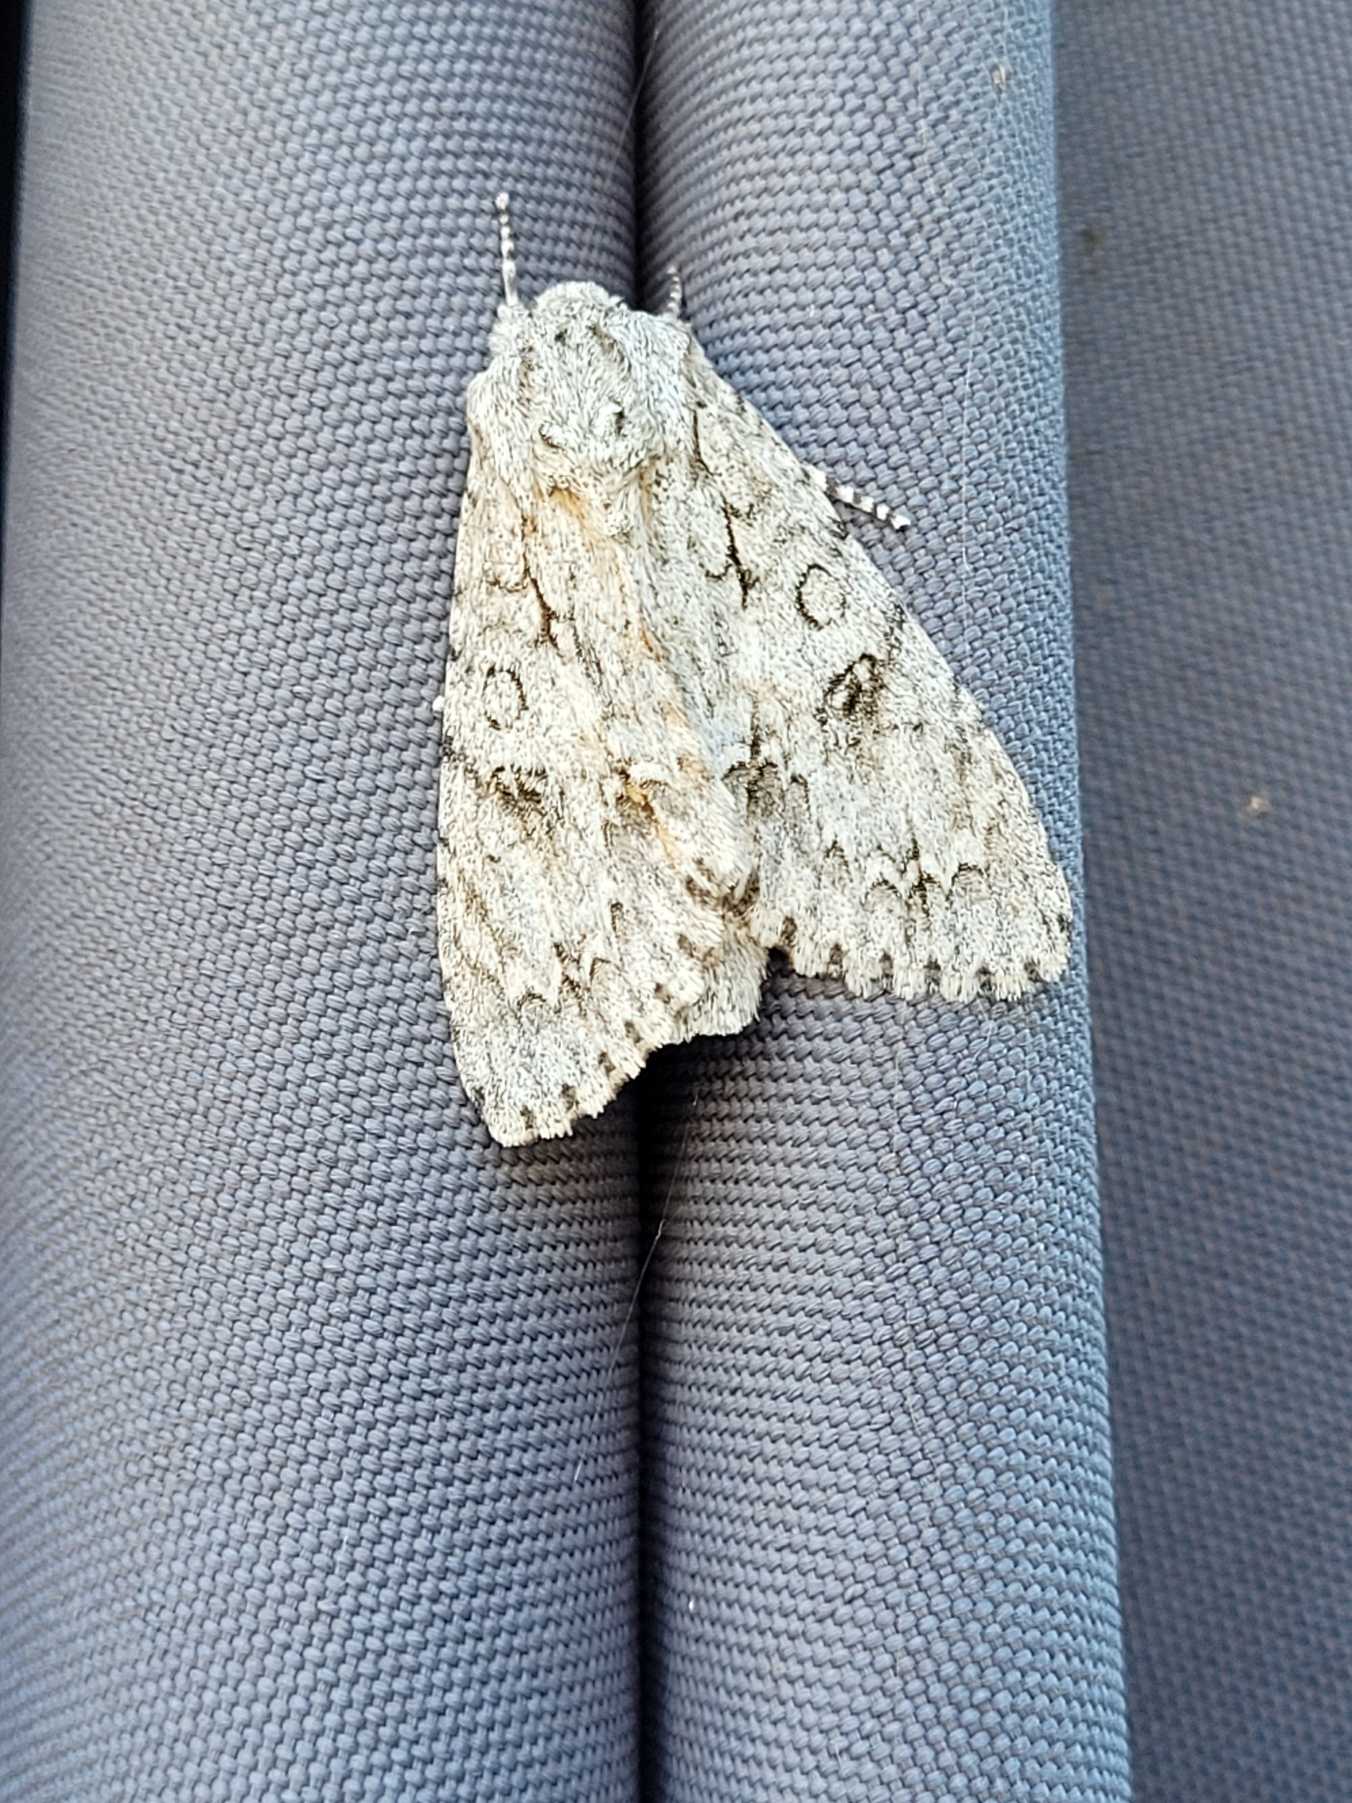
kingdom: Animalia
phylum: Arthropoda
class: Insecta
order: Lepidoptera
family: Noctuidae
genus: Acronicta
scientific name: Acronicta aceris
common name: Ahornugle
